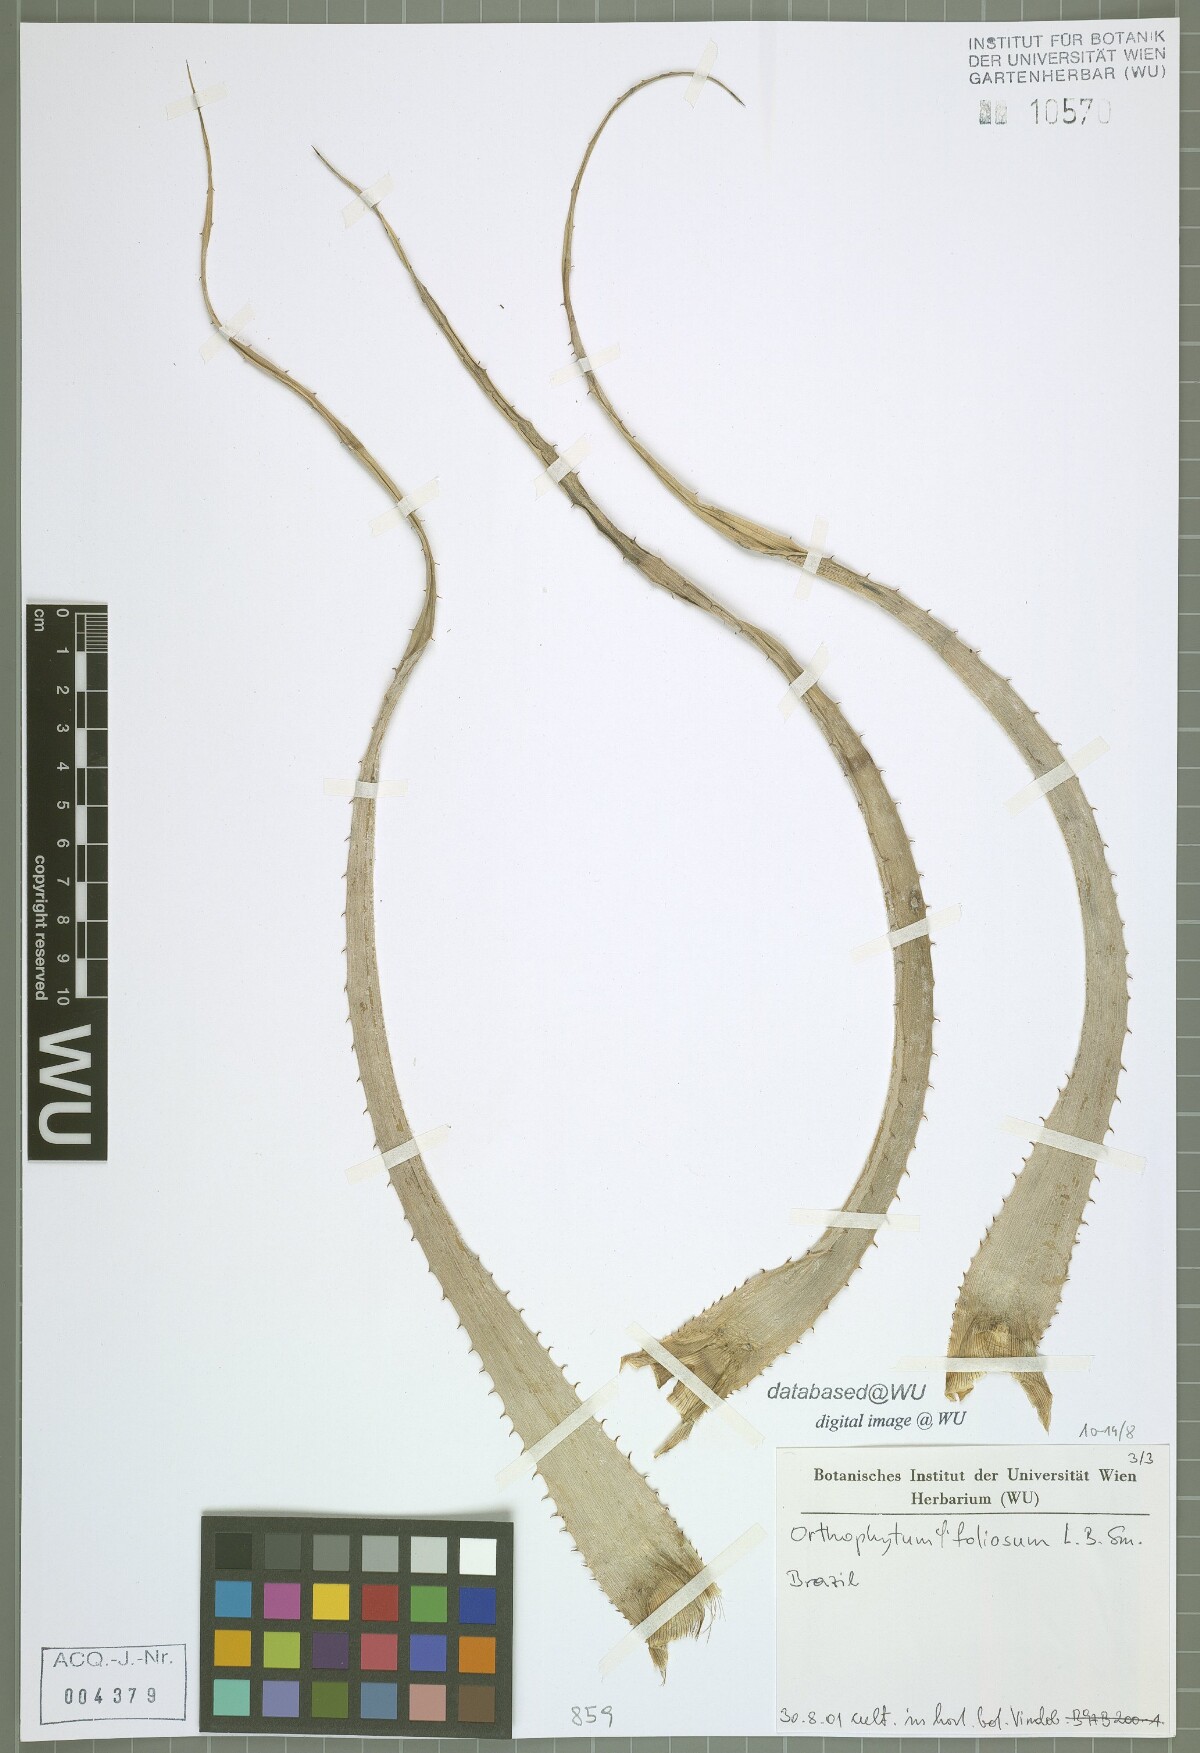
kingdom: Plantae
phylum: Tracheophyta
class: Liliopsida
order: Poales
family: Bromeliaceae
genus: Orthophytum
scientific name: Orthophytum foliosum
